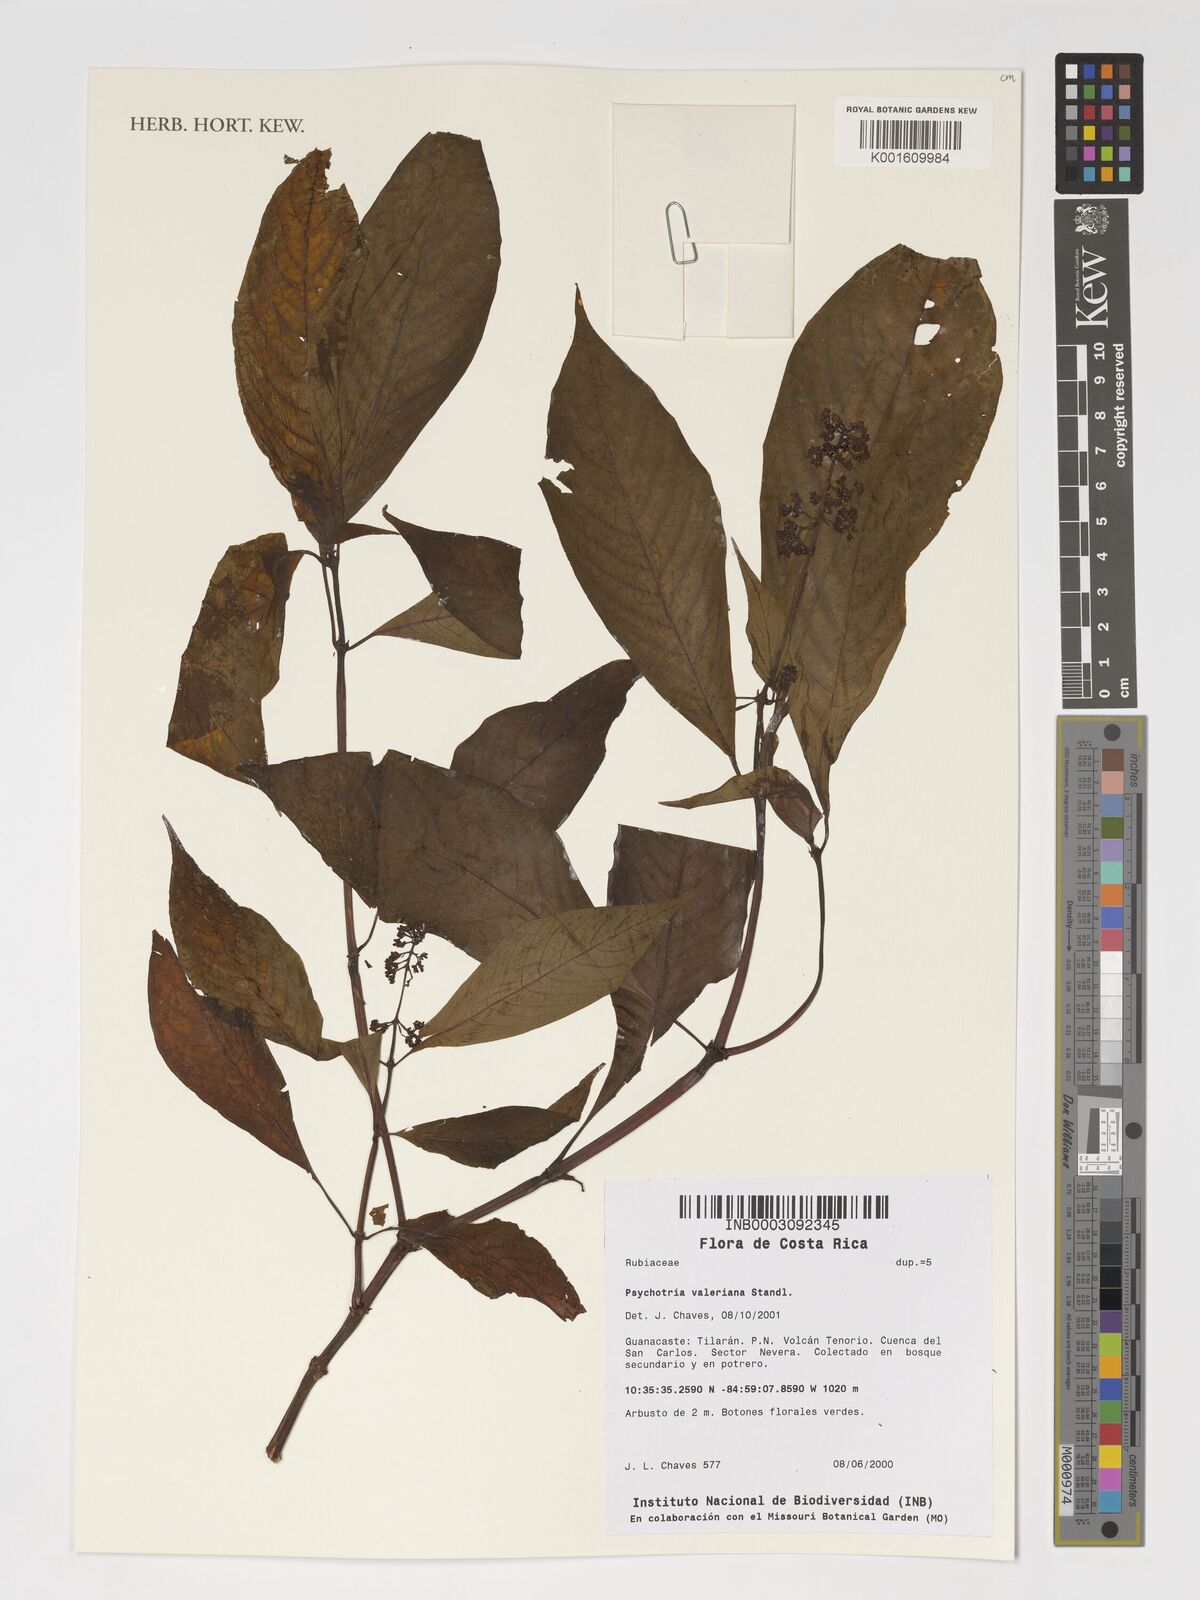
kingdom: Plantae
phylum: Tracheophyta
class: Magnoliopsida
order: Gentianales
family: Rubiaceae
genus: Palicourea
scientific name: Palicourea valerioana
